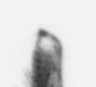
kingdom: Animalia
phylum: Arthropoda
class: Copepoda
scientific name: Copepoda
